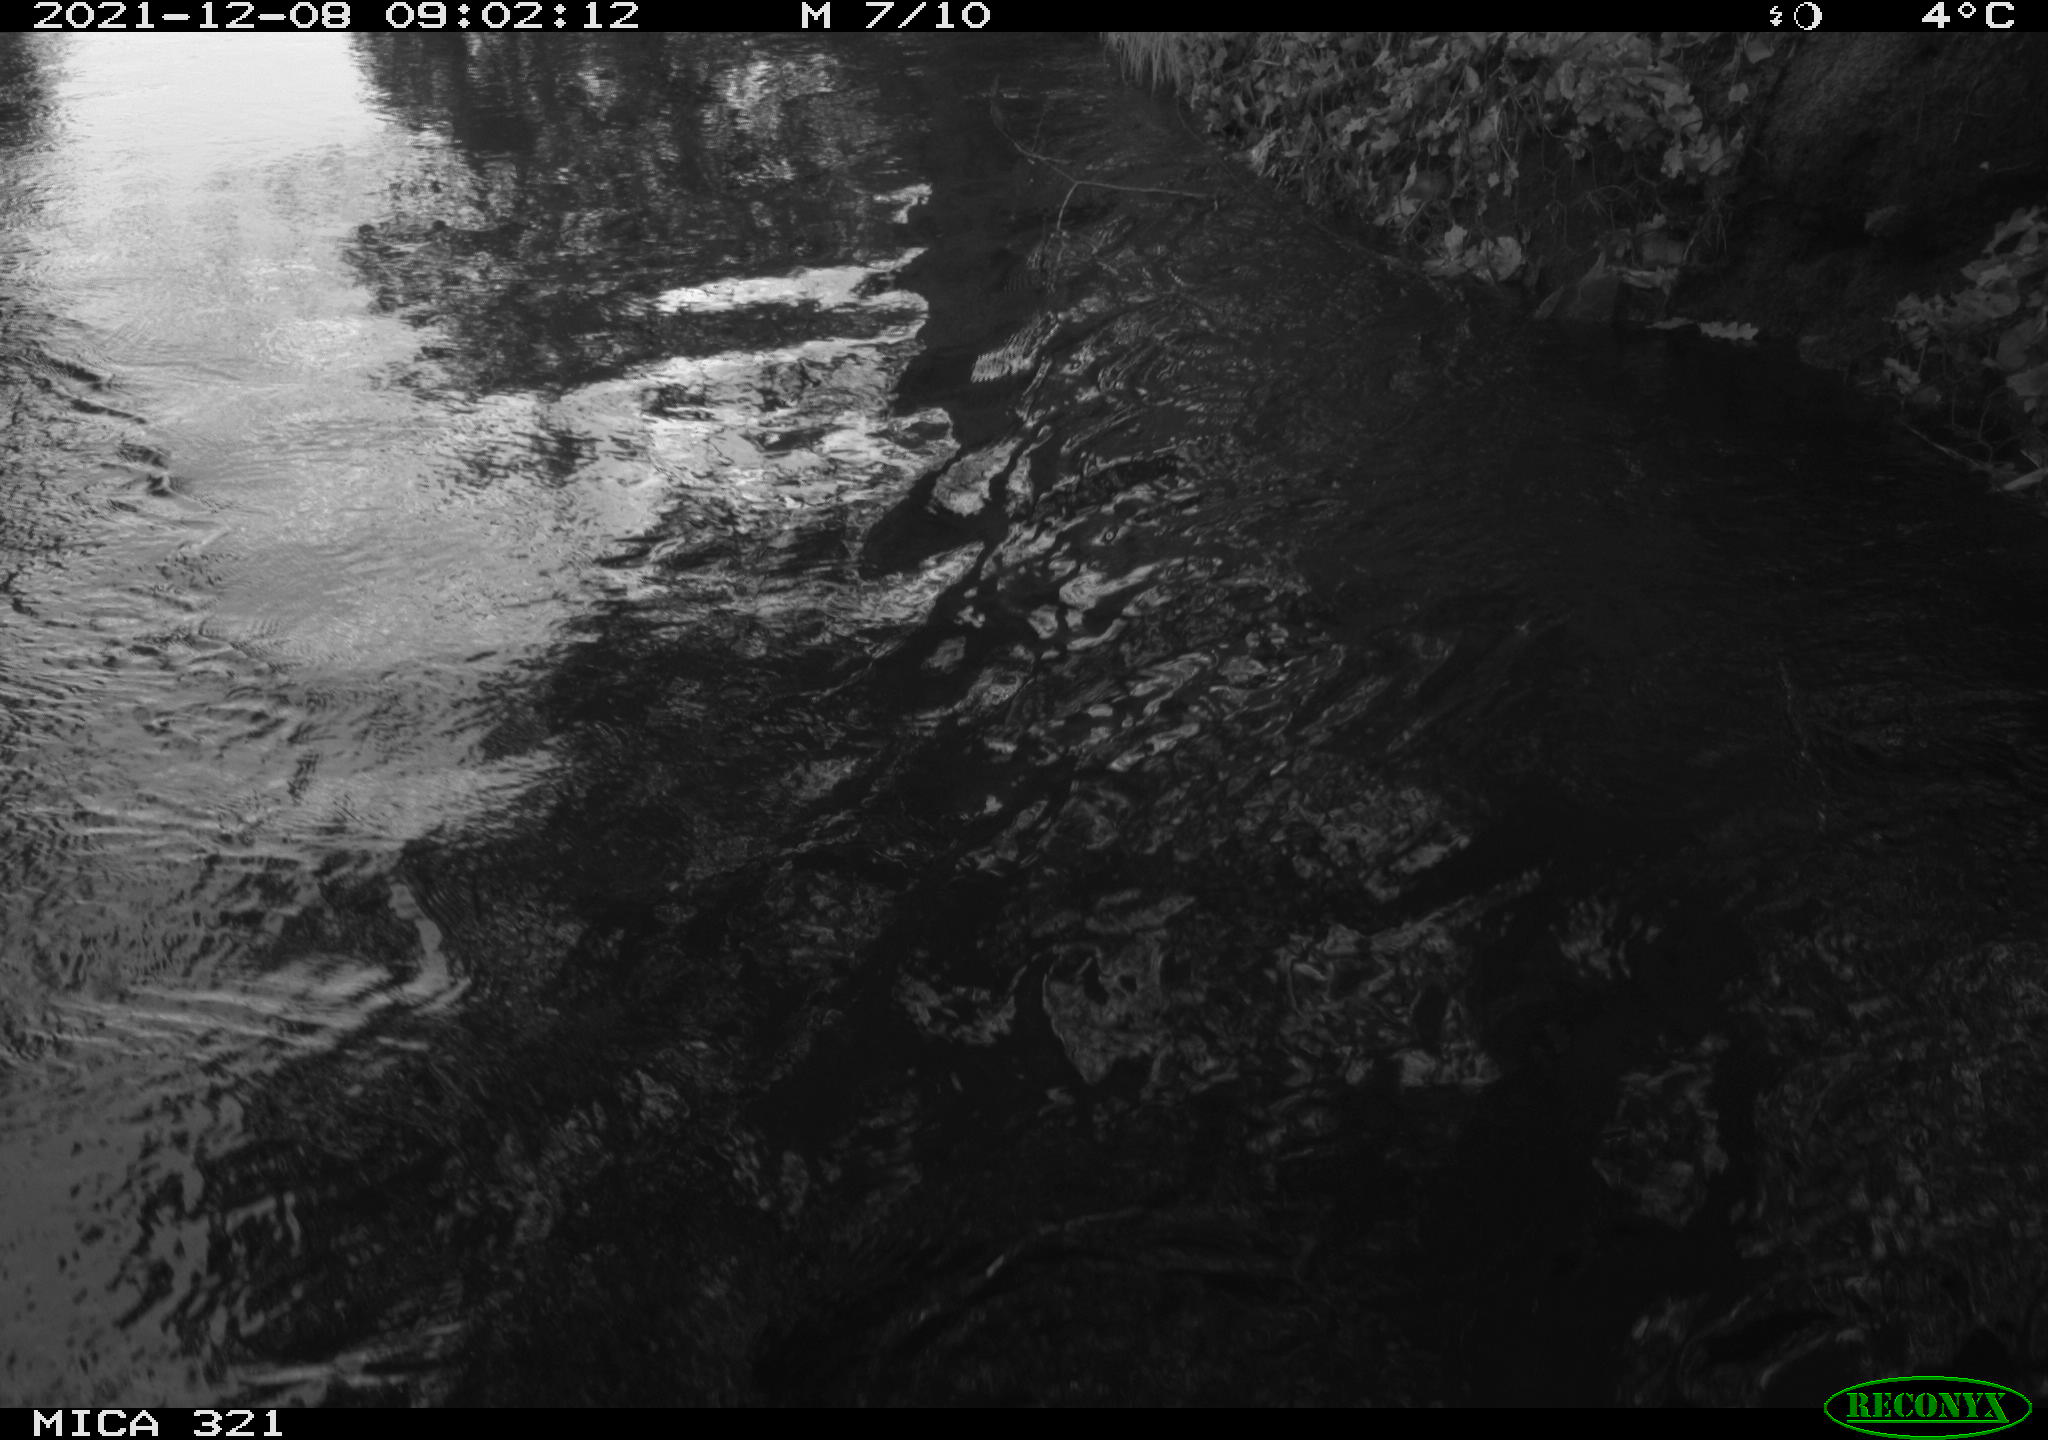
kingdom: Animalia
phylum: Chordata
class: Aves
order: Anseriformes
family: Anatidae
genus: Anas
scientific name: Anas
